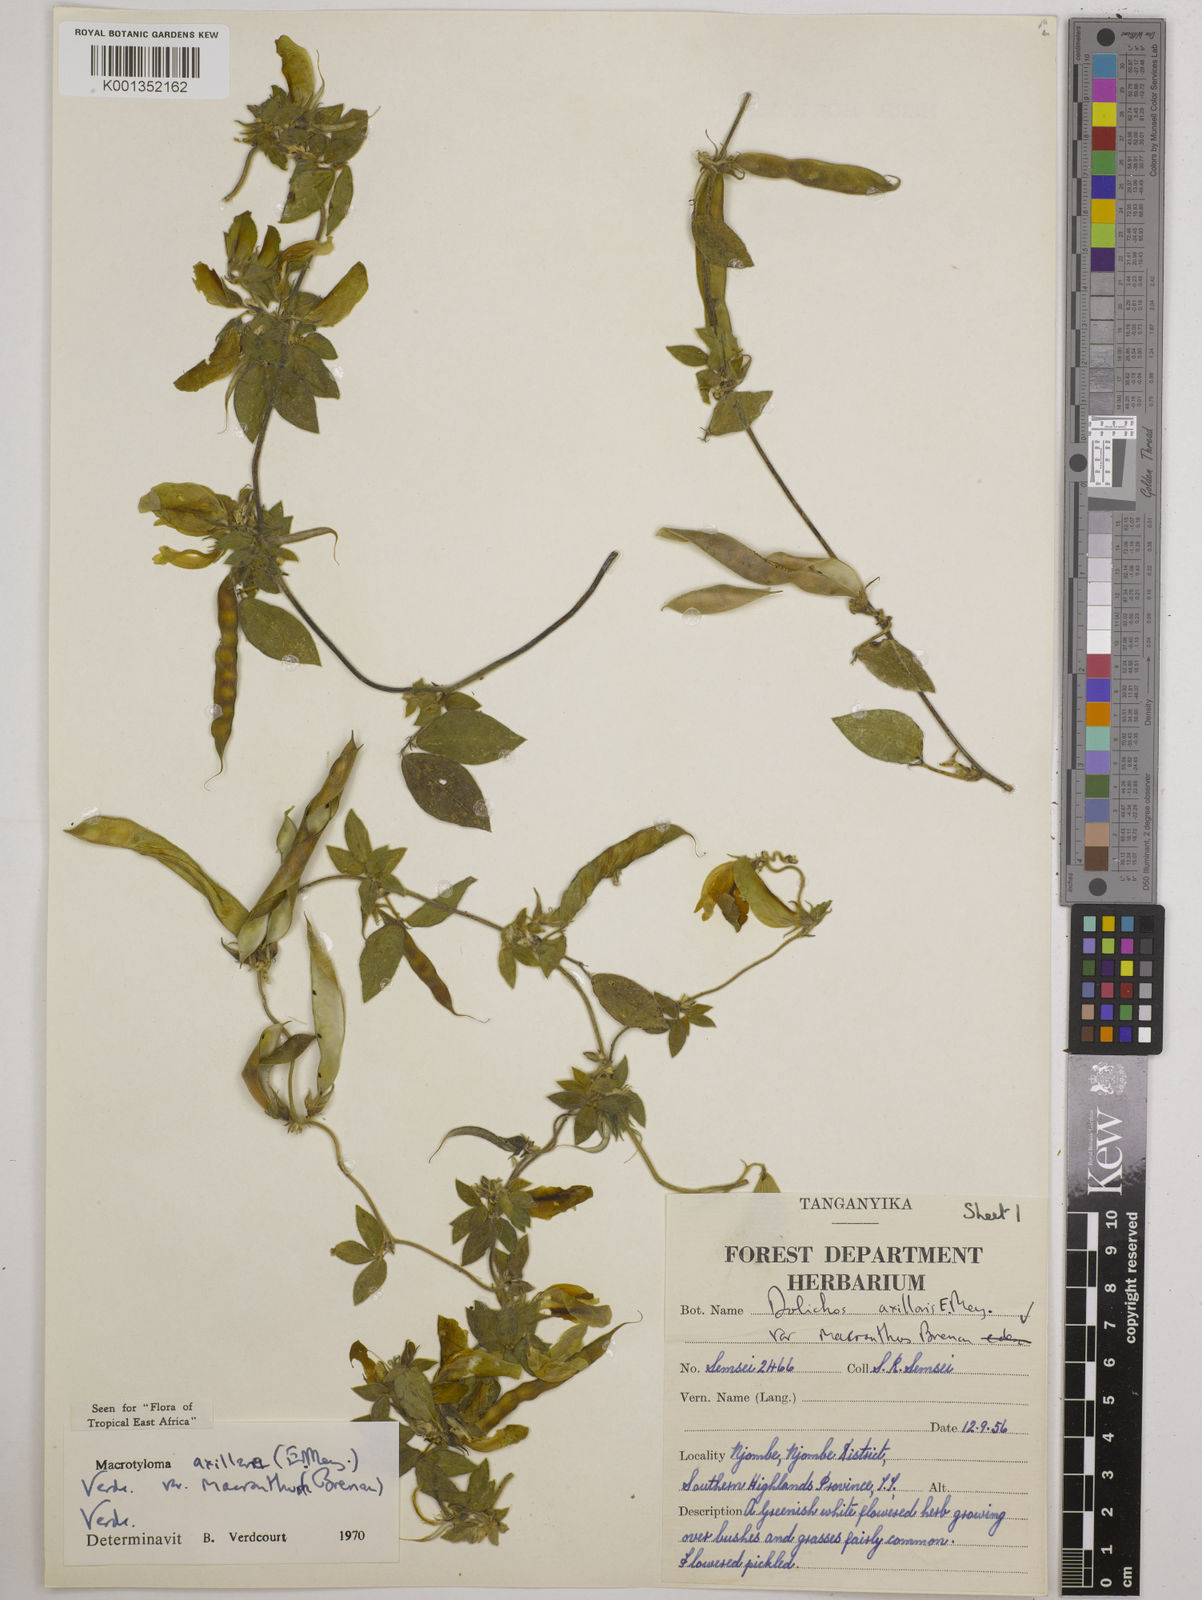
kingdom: Plantae
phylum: Tracheophyta
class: Magnoliopsida
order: Fabales
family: Fabaceae
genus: Macrotyloma
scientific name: Macrotyloma
